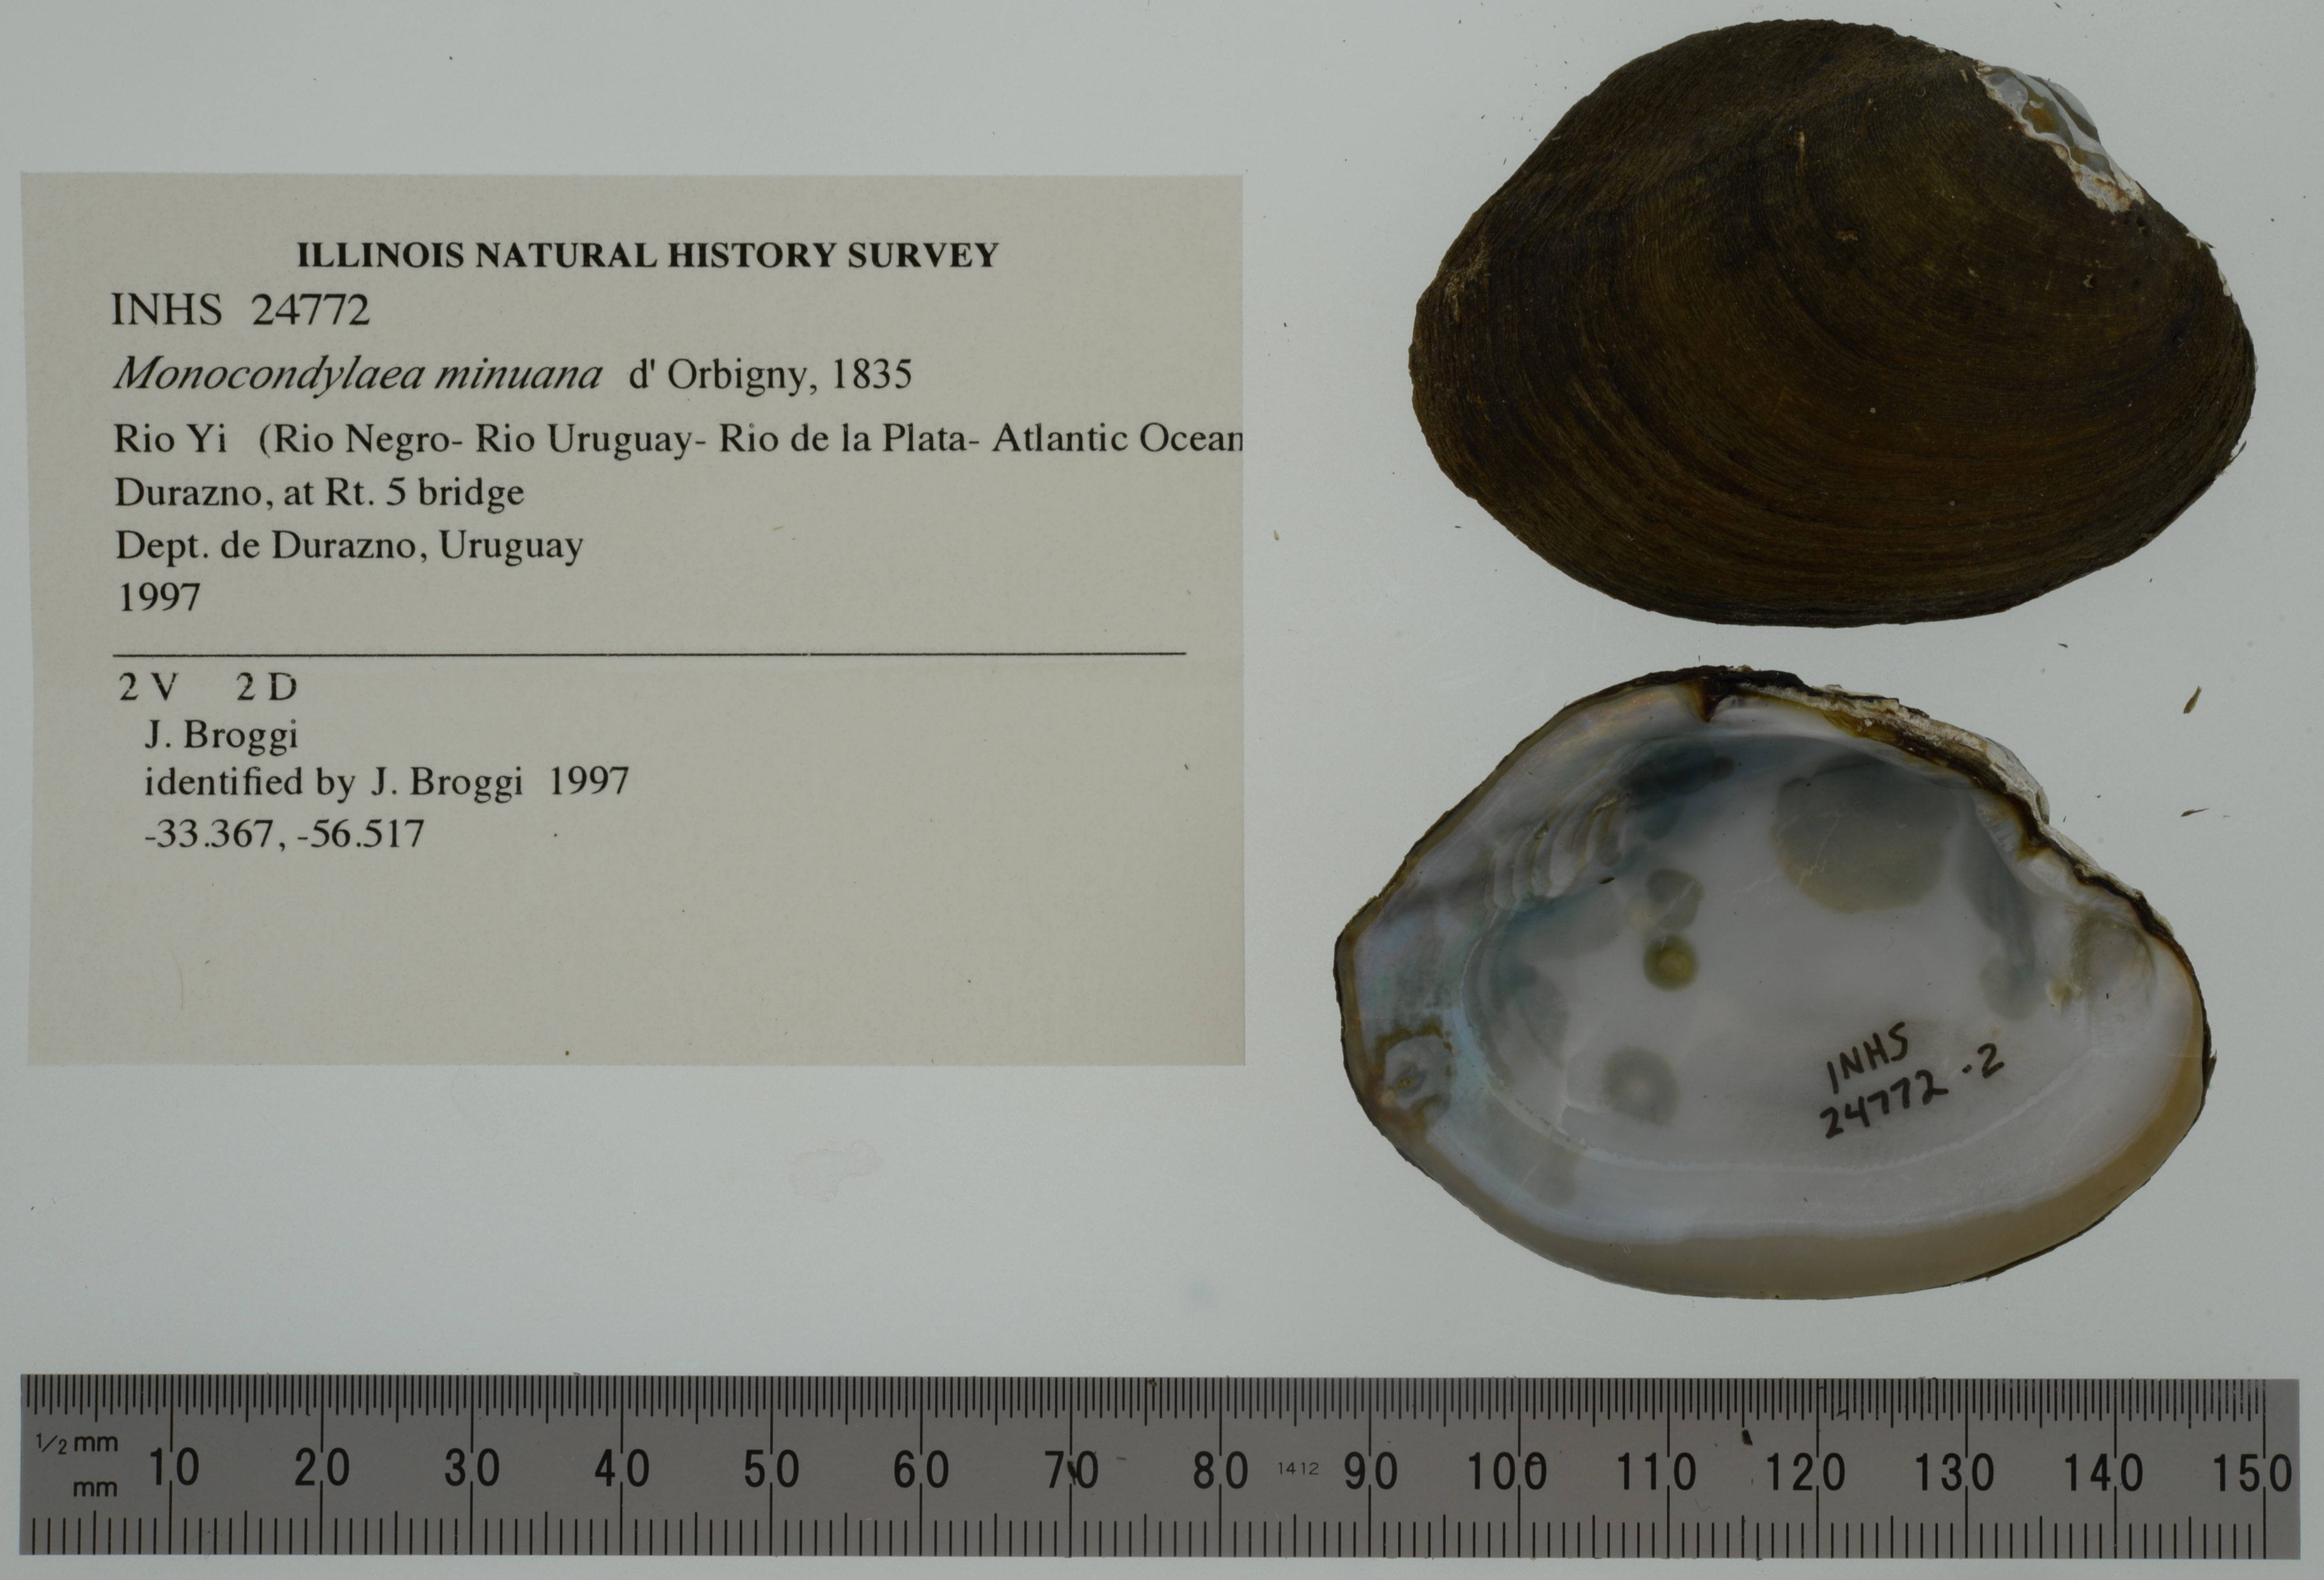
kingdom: Animalia
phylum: Mollusca
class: Bivalvia
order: Unionida
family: Mycetopodidae
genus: Monocondylaea
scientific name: Monocondylaea minuana
